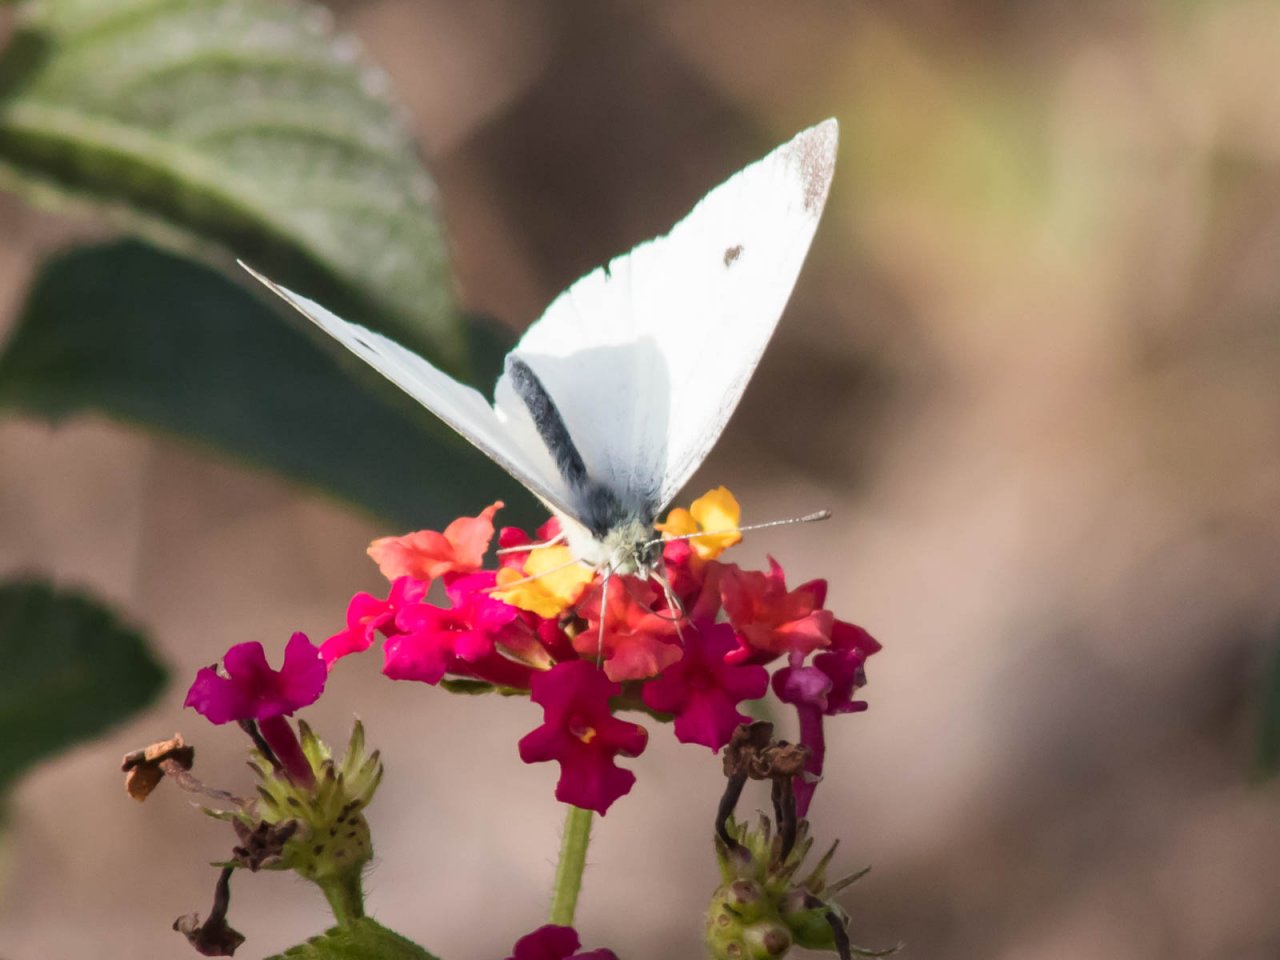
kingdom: Animalia
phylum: Arthropoda
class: Insecta
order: Lepidoptera
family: Pieridae
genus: Pieris
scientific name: Pieris rapae
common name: Cabbage White
